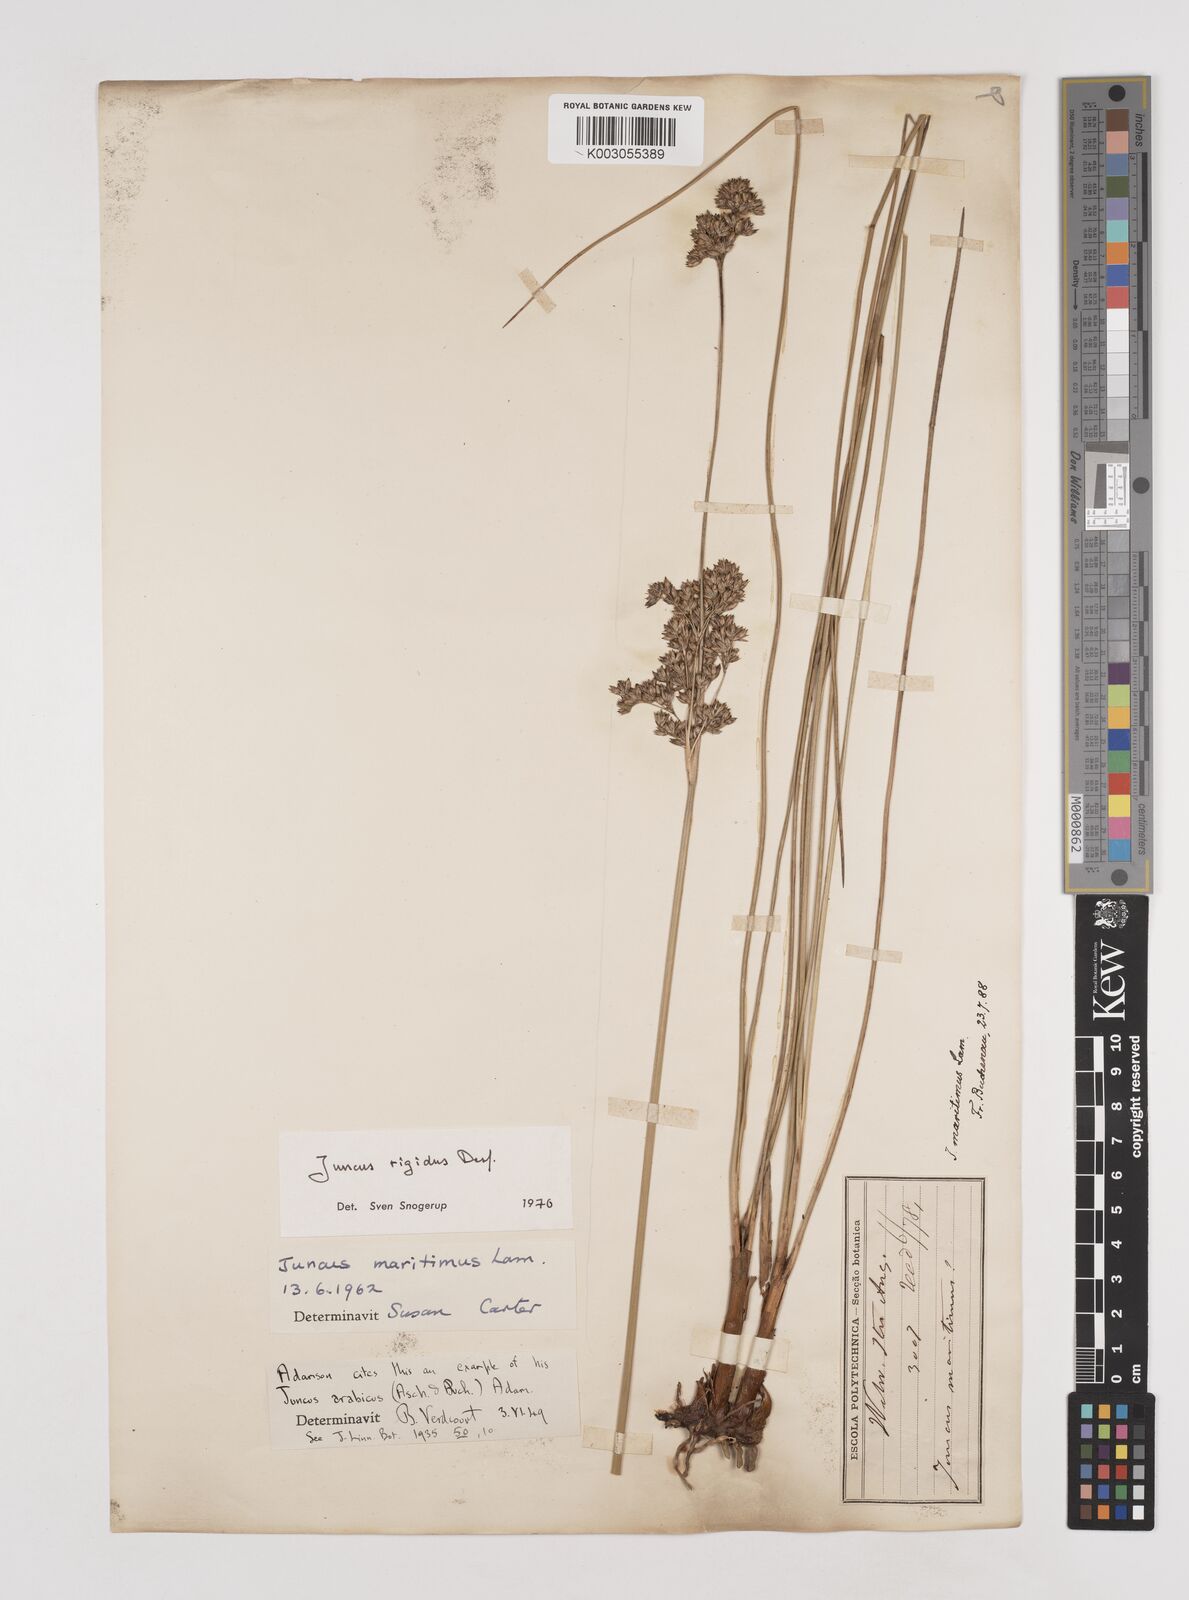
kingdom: Plantae
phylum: Tracheophyta
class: Liliopsida
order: Poales
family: Juncaceae
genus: Juncus
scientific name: Juncus rigidus
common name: Hard sea rush
